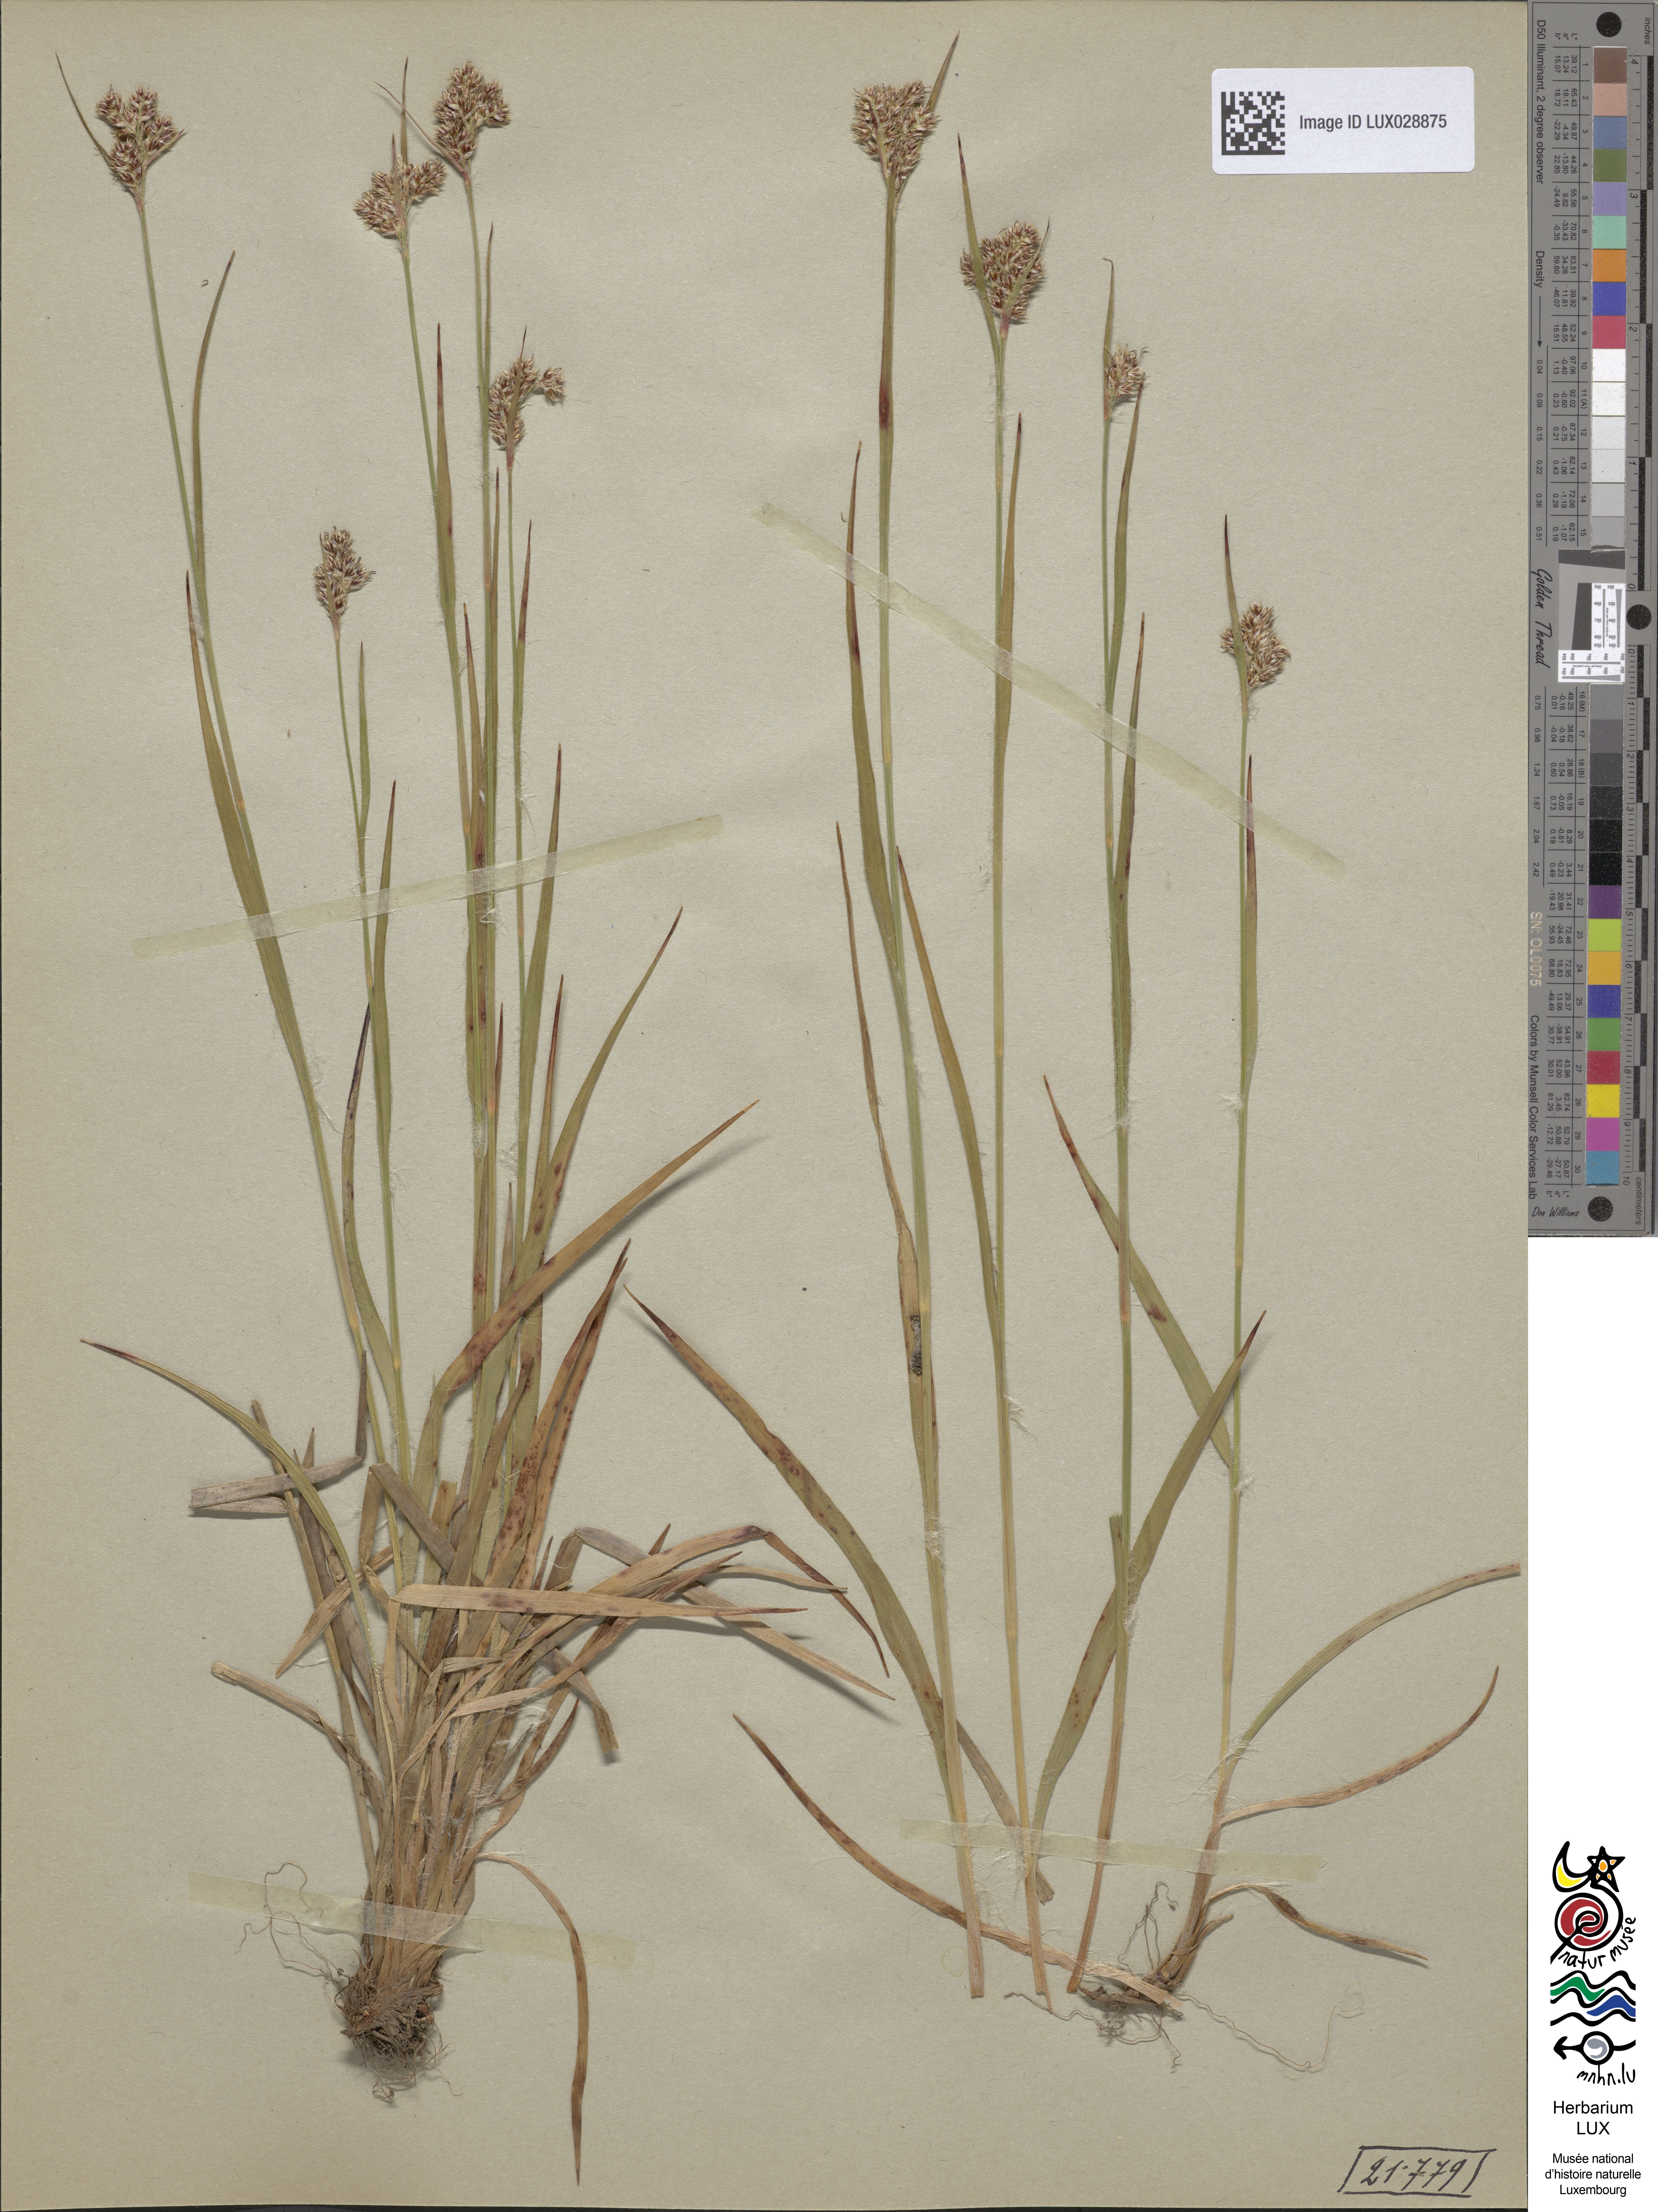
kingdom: Plantae
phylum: Tracheophyta
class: Liliopsida
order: Poales
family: Juncaceae
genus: Luzula
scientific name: Luzula multiflora
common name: Heath wood-rush
